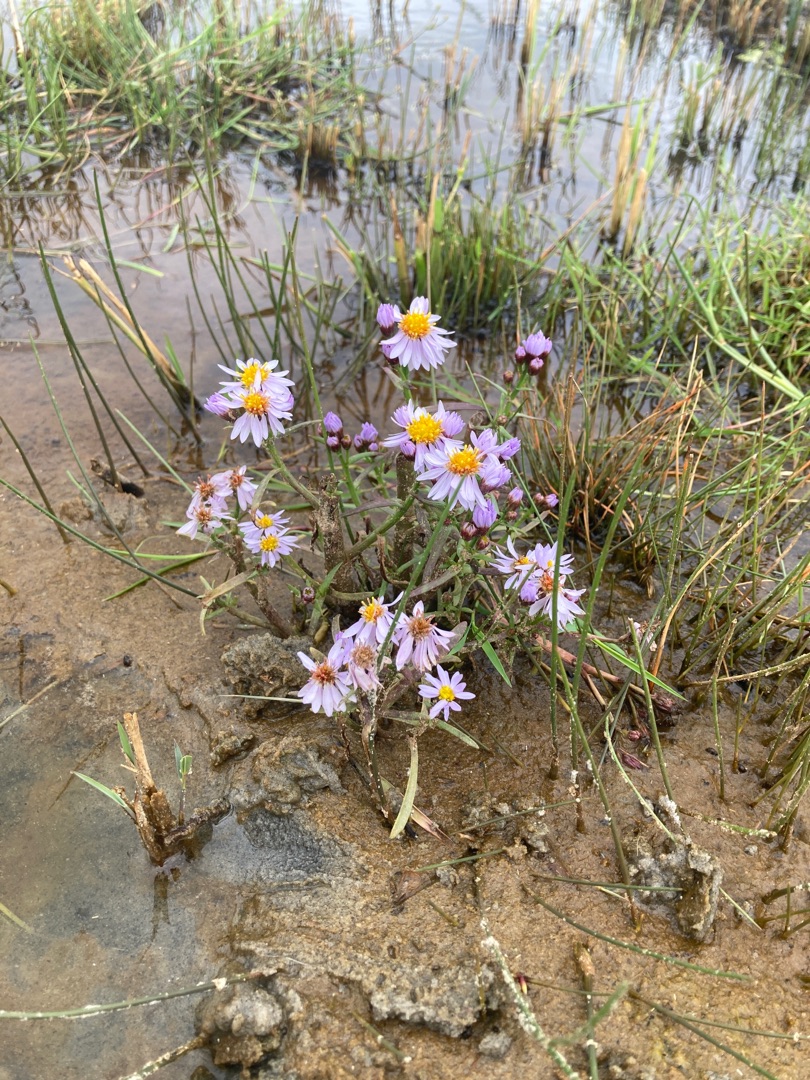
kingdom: Plantae
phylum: Tracheophyta
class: Magnoliopsida
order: Asterales
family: Asteraceae
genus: Tripolium
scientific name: Tripolium pannonicum
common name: Strandasters
